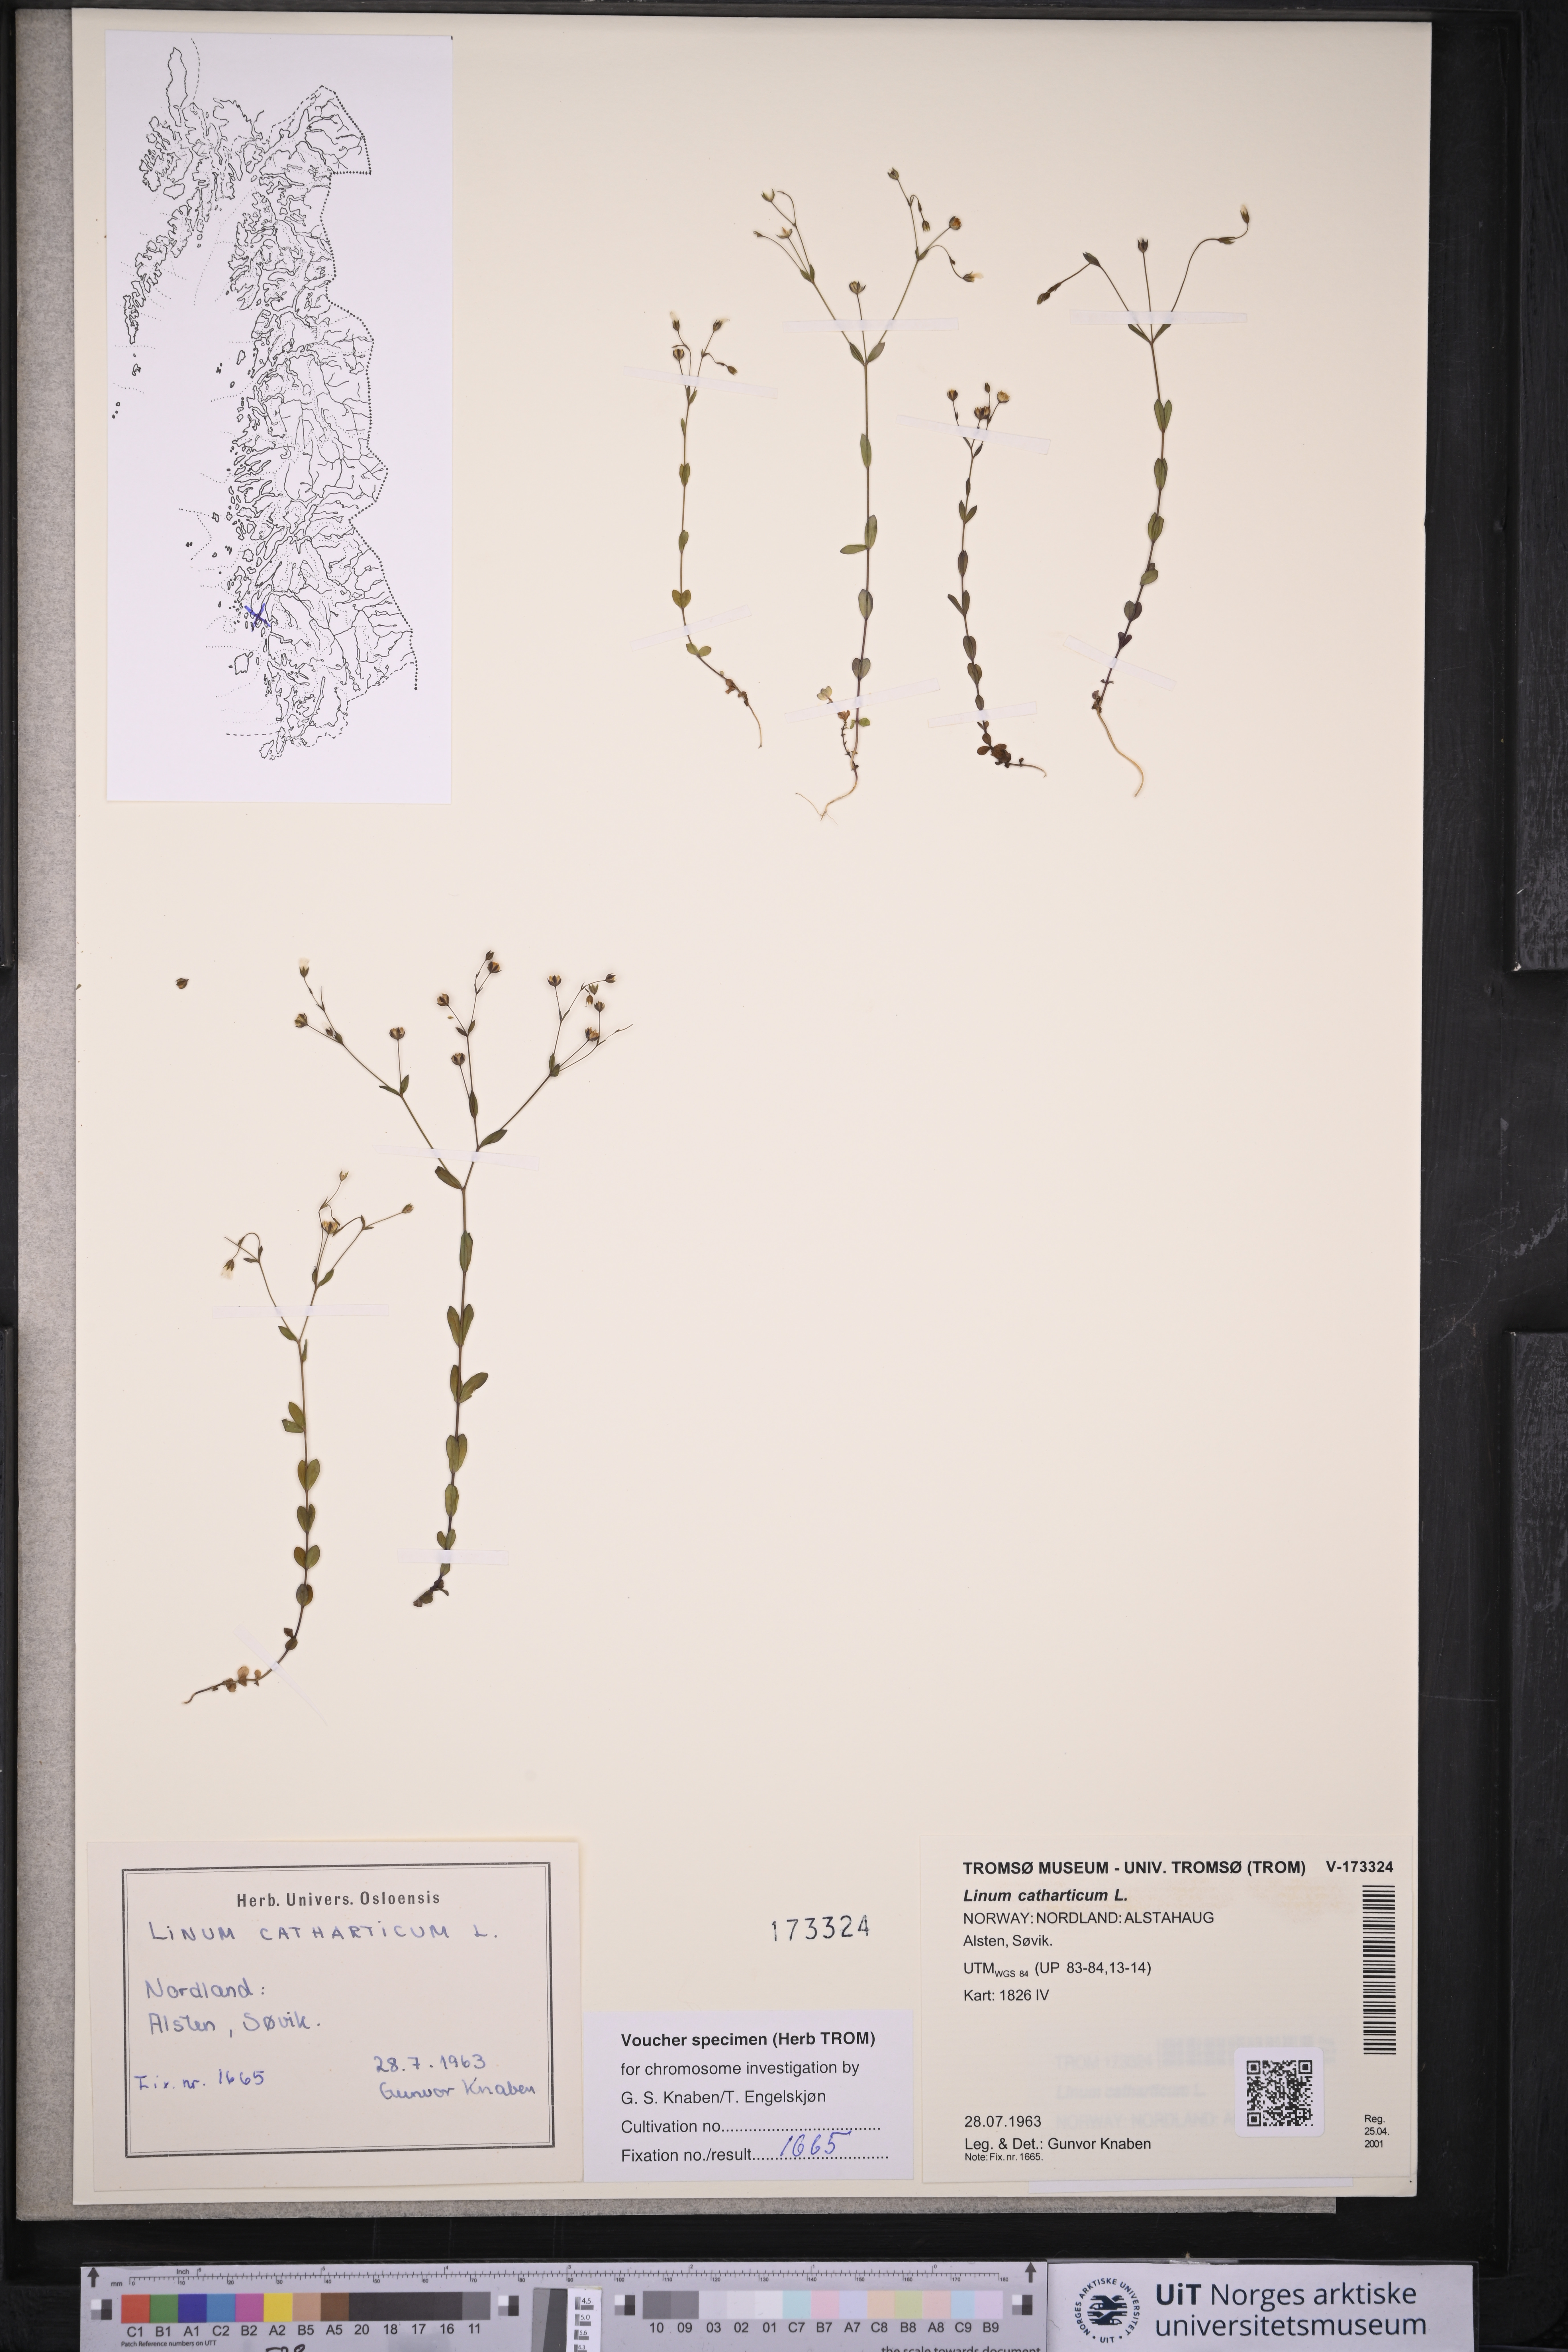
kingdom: Plantae
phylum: Tracheophyta
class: Magnoliopsida
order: Malpighiales
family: Linaceae
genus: Linum
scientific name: Linum catharticum
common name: Fairy flax
